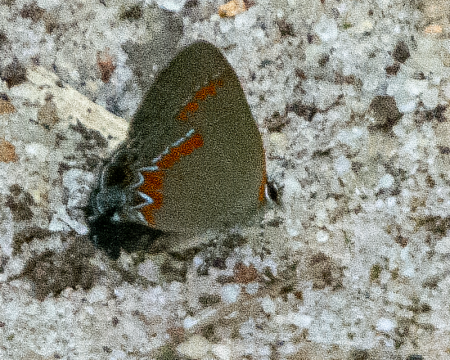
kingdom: Animalia
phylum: Arthropoda
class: Insecta
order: Lepidoptera
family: Lycaenidae
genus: Calycopis
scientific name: Calycopis cecrops
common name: Red-banded Hairstreak
